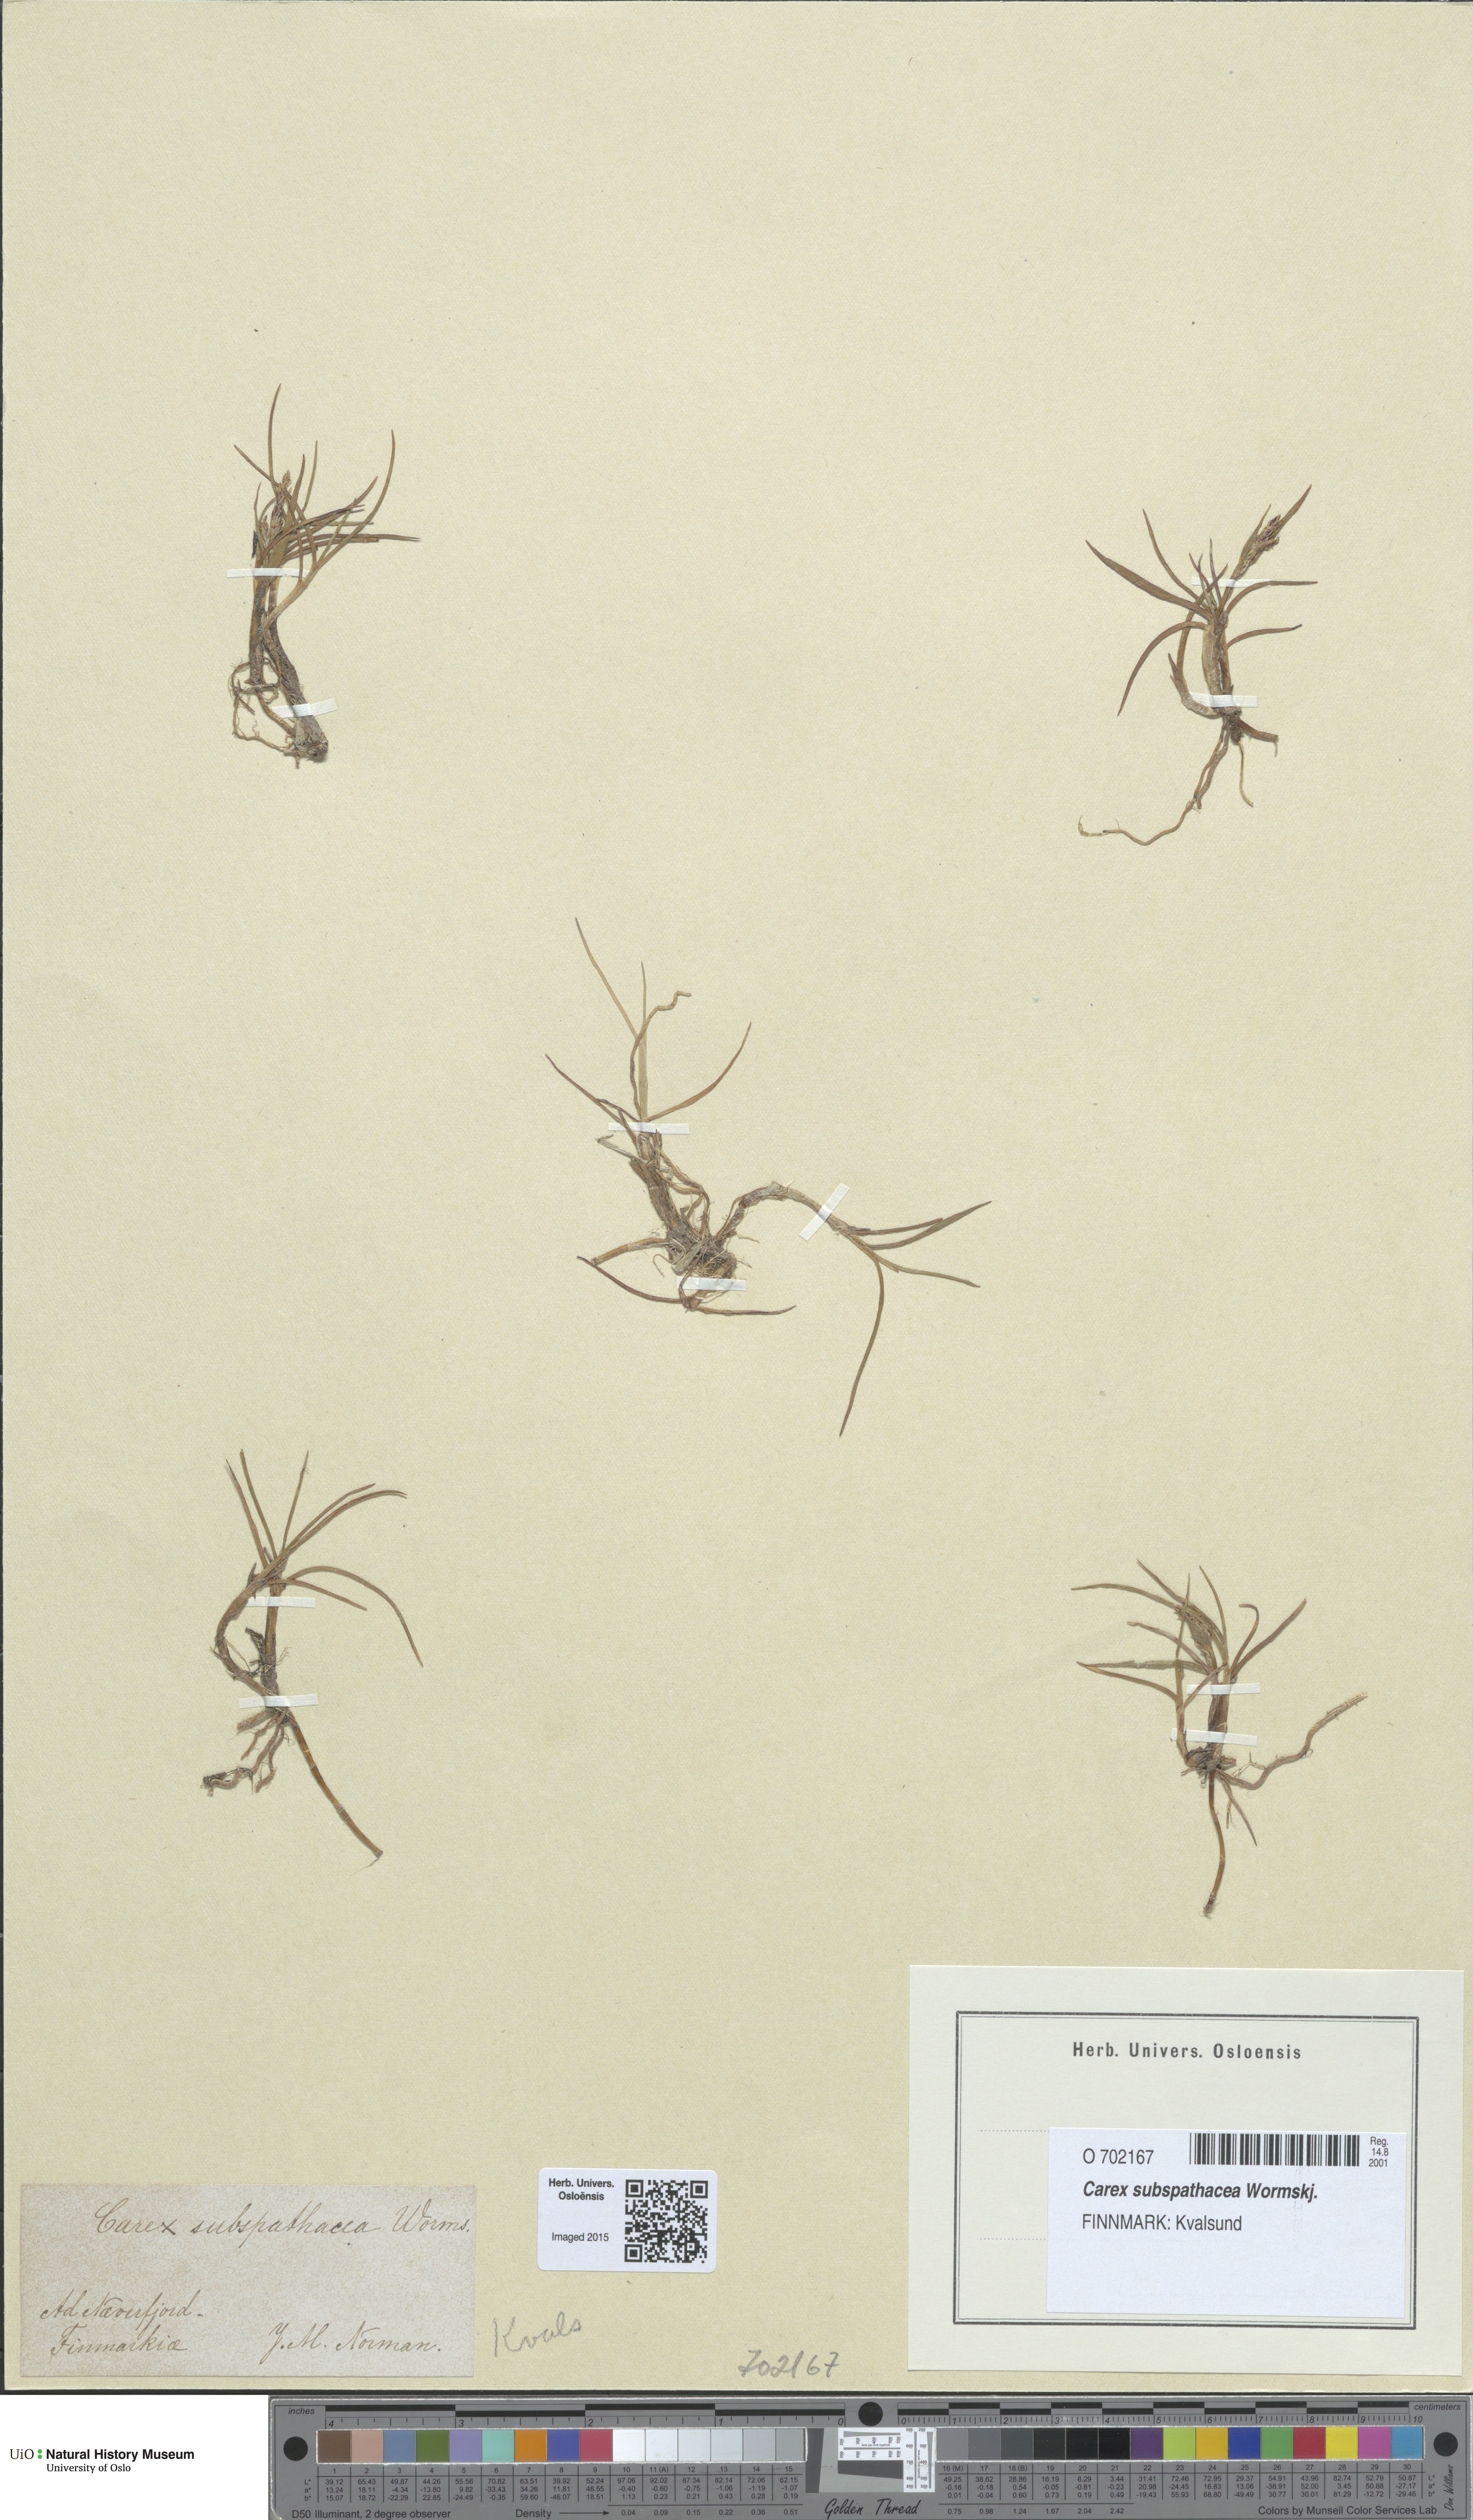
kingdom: Plantae
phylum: Tracheophyta
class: Liliopsida
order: Poales
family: Cyperaceae
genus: Carex
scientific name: Carex subspathacea
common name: Hoppner's sedge
